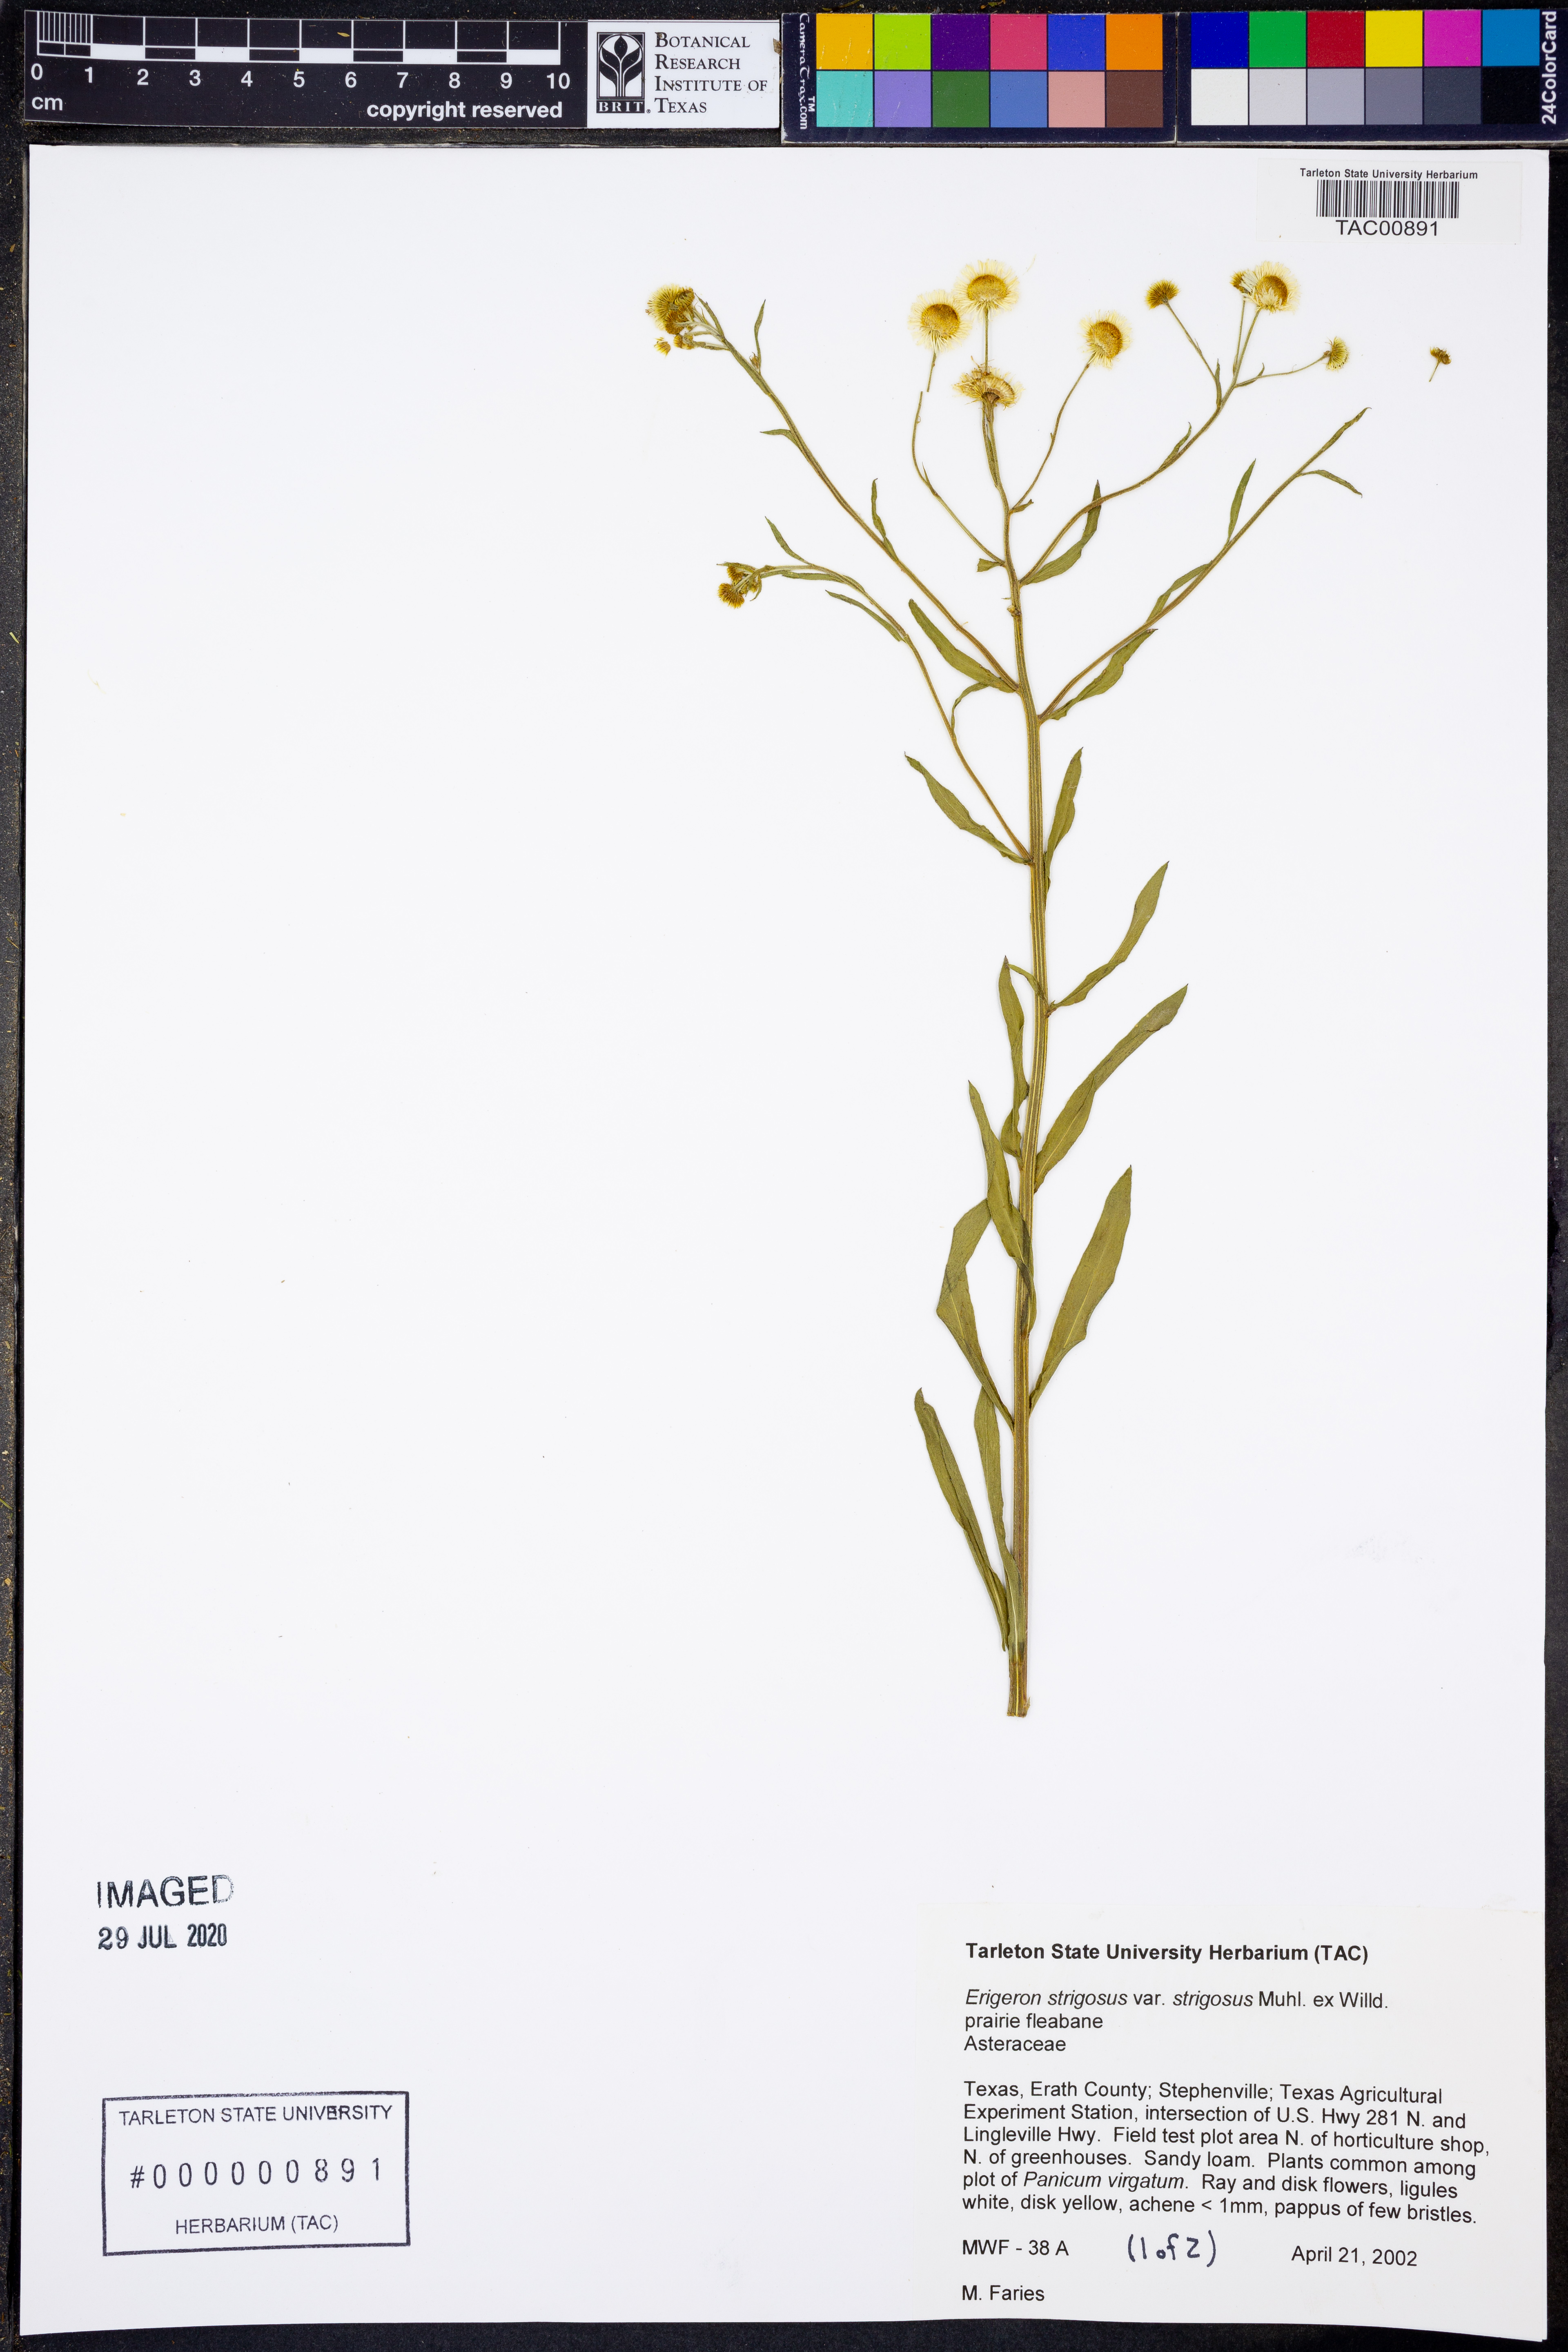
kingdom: Plantae
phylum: Tracheophyta
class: Magnoliopsida
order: Asterales
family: Asteraceae
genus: Erigeron
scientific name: Erigeron strigosus
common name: Common eastern fleabane
